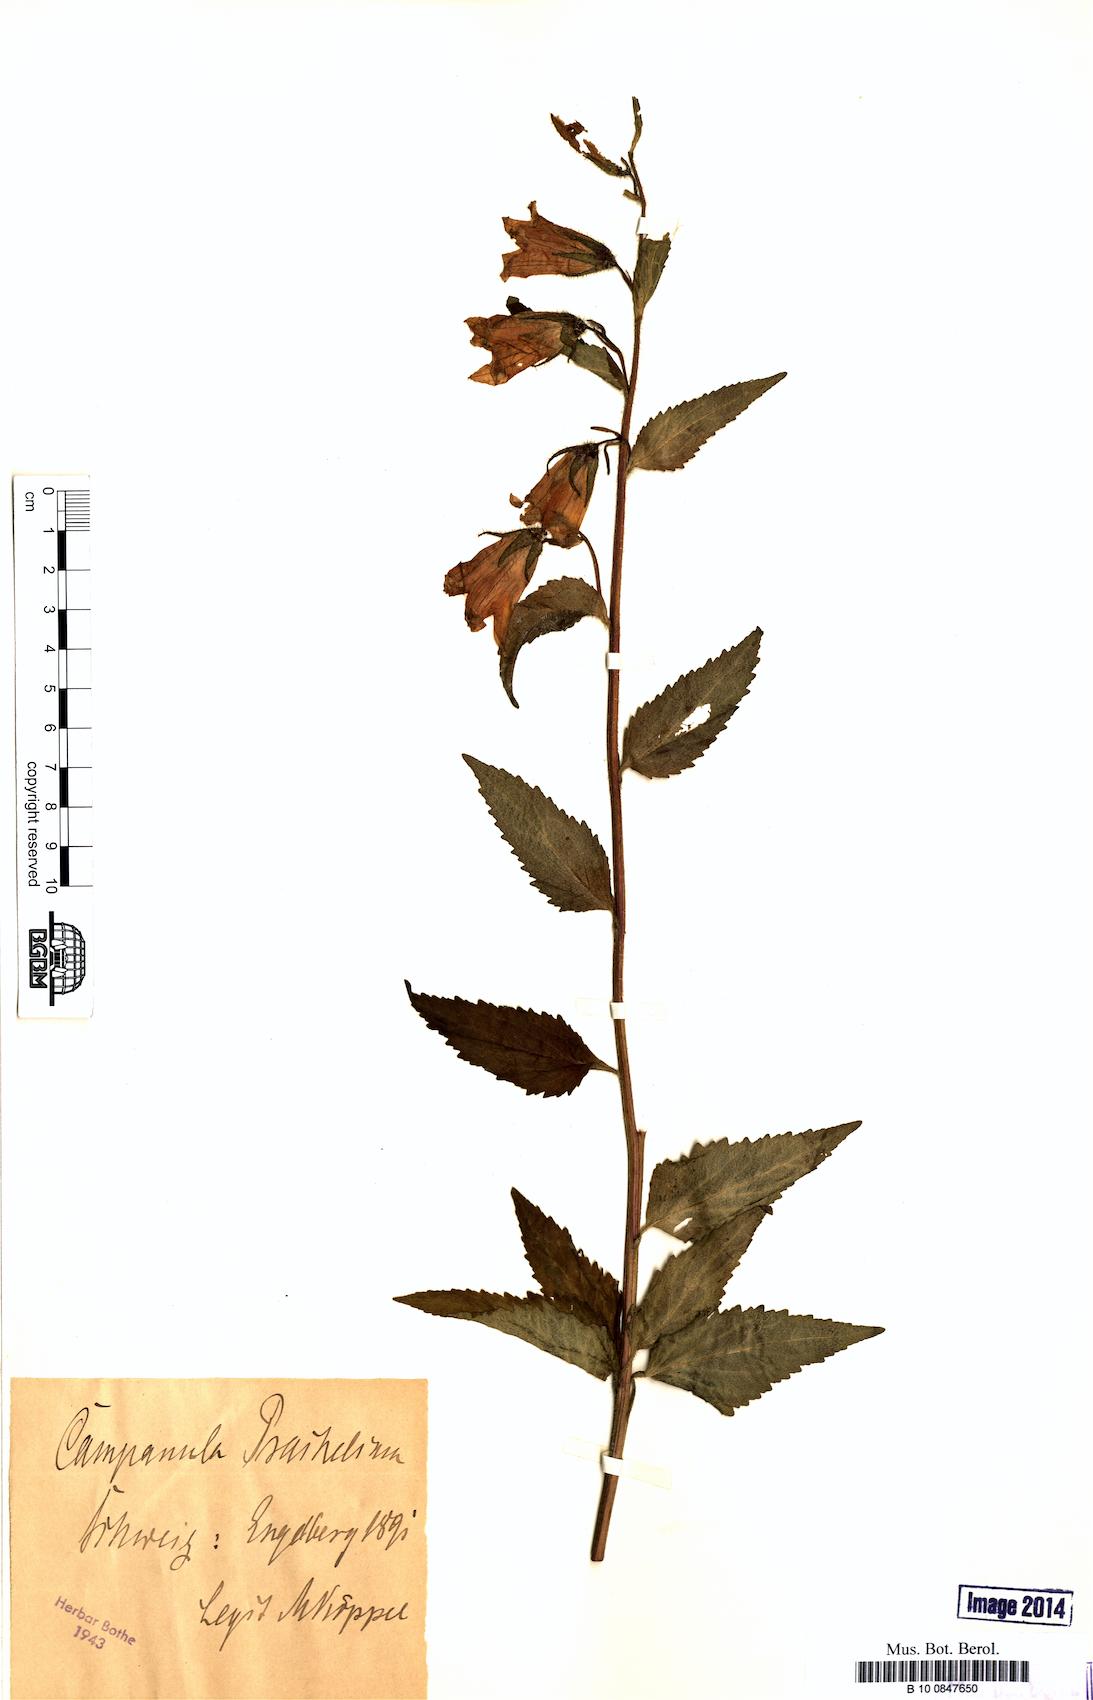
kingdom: Plantae
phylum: Tracheophyta
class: Magnoliopsida
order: Asterales
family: Campanulaceae
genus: Campanula
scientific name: Campanula trachelium
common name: Nettle-leaved bellflower
